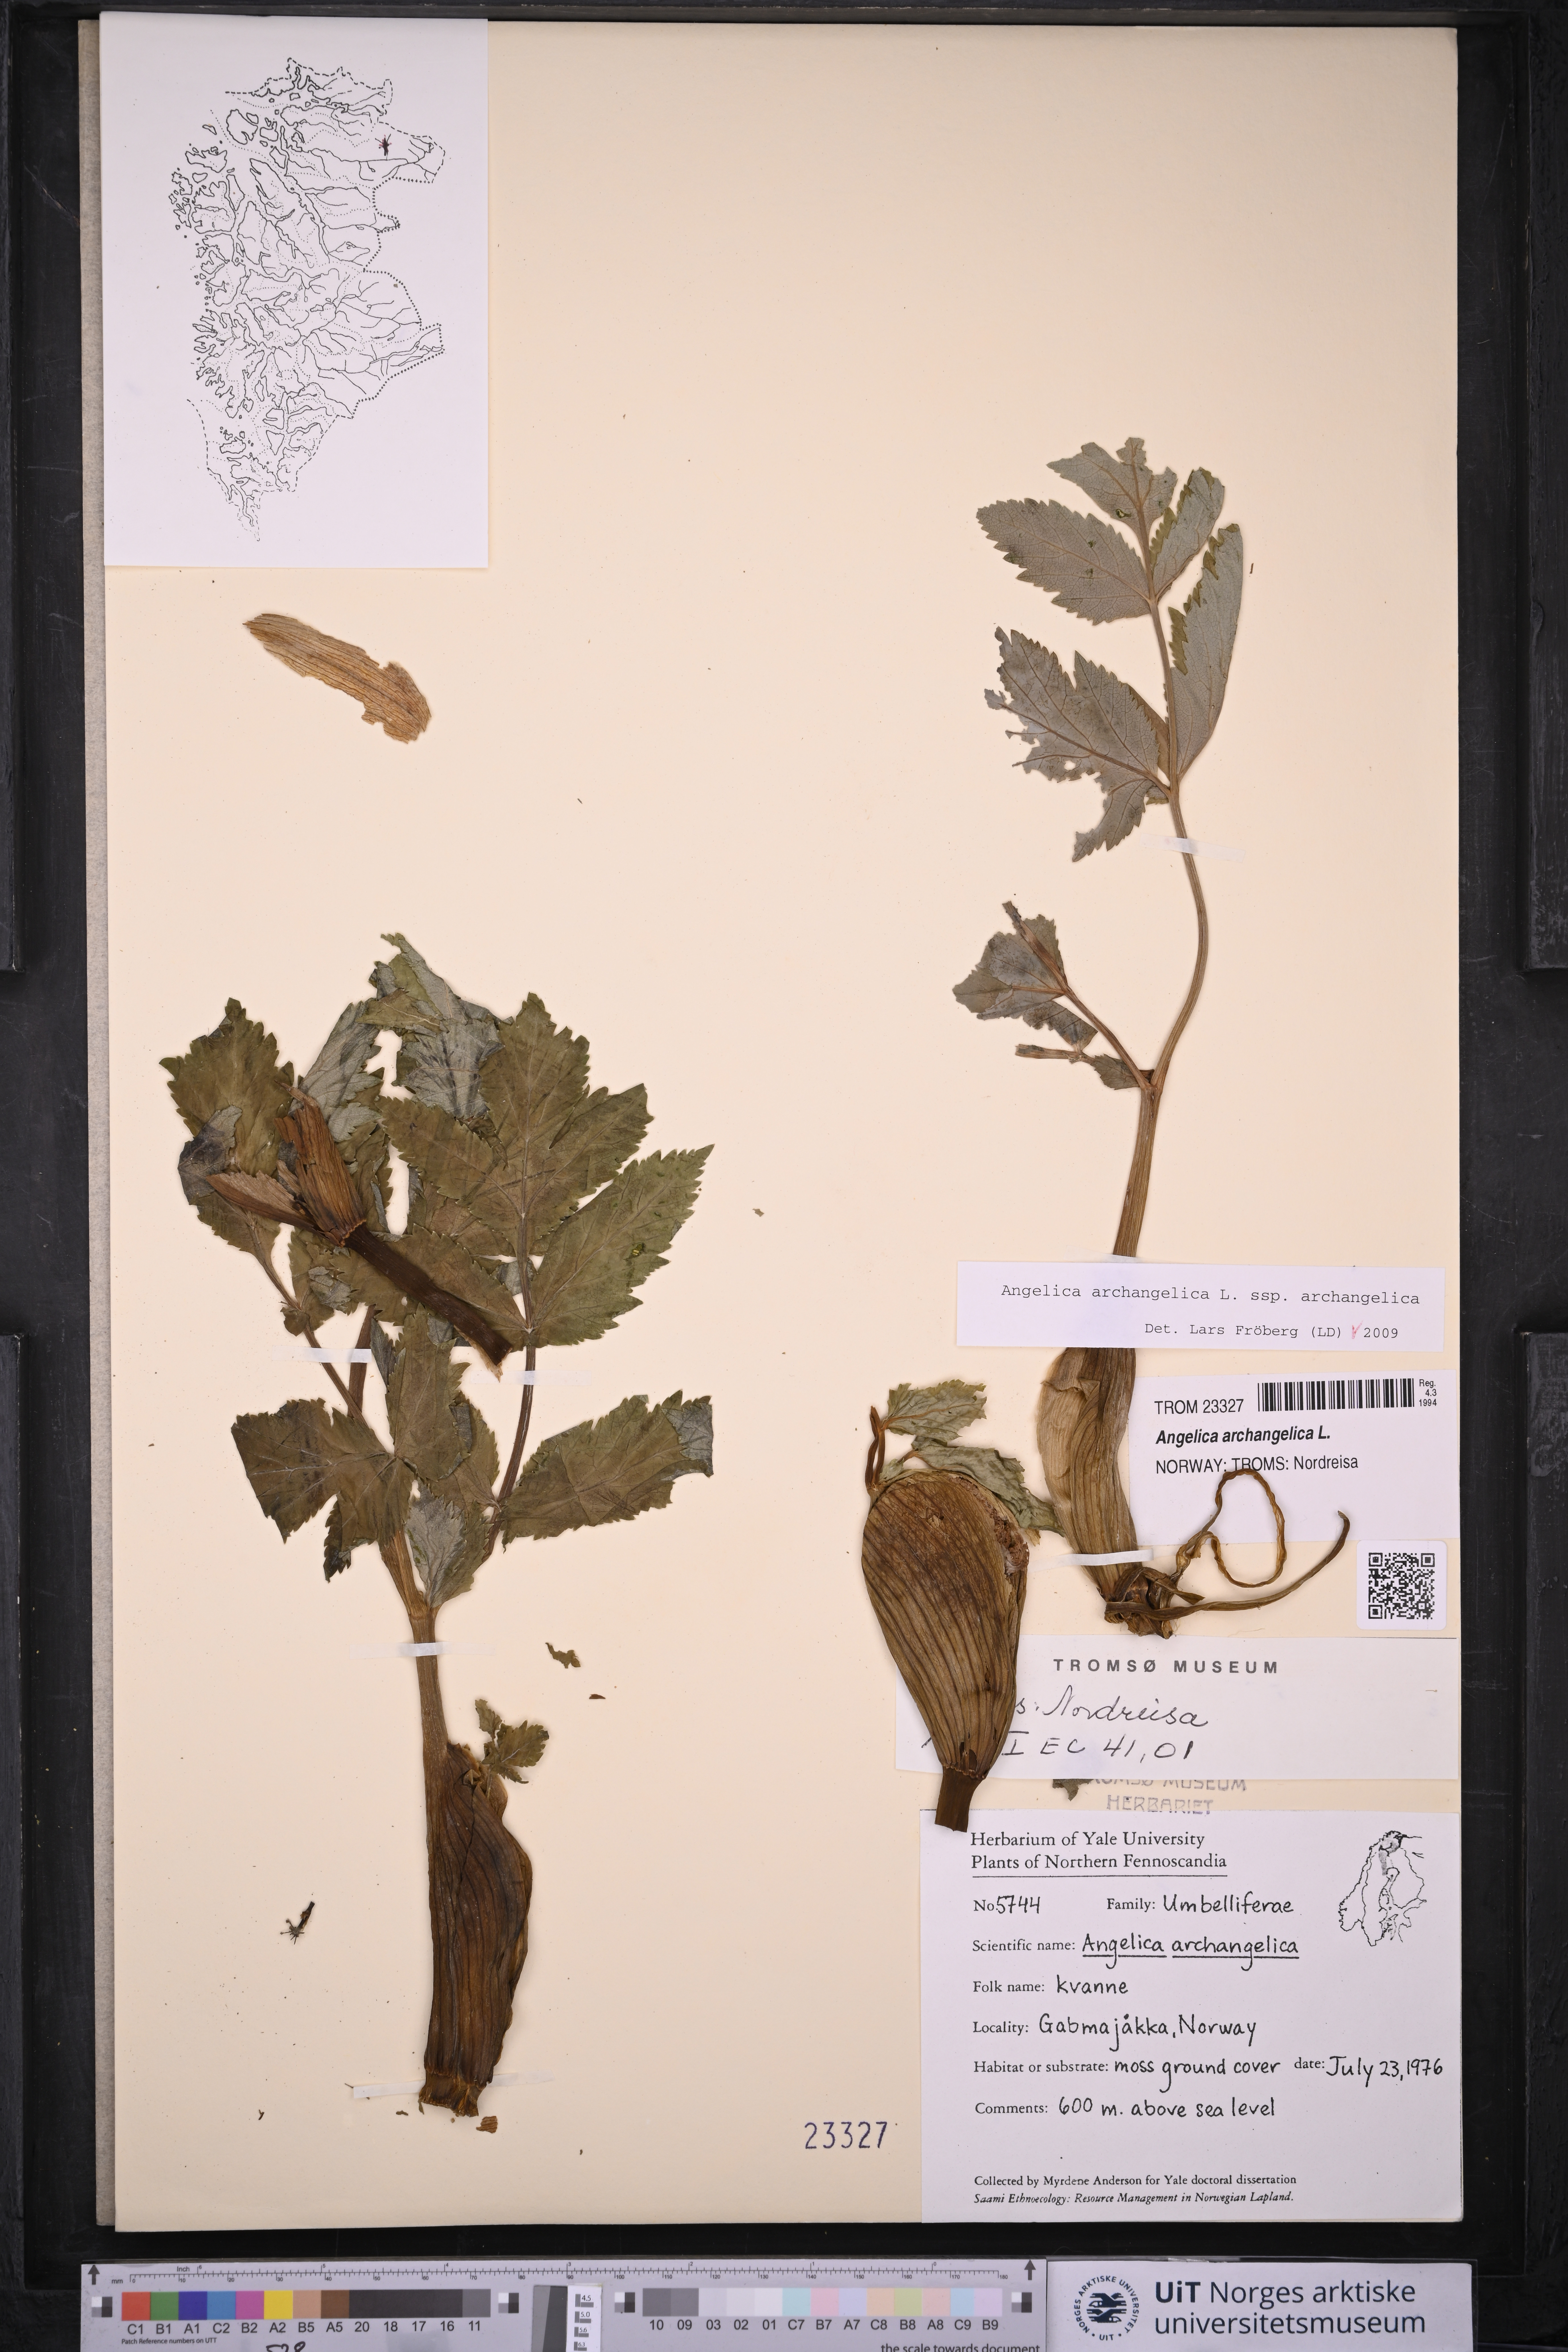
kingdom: Plantae
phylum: Tracheophyta
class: Magnoliopsida
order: Apiales
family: Apiaceae
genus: Angelica
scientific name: Angelica archangelica
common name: Garden angelica
